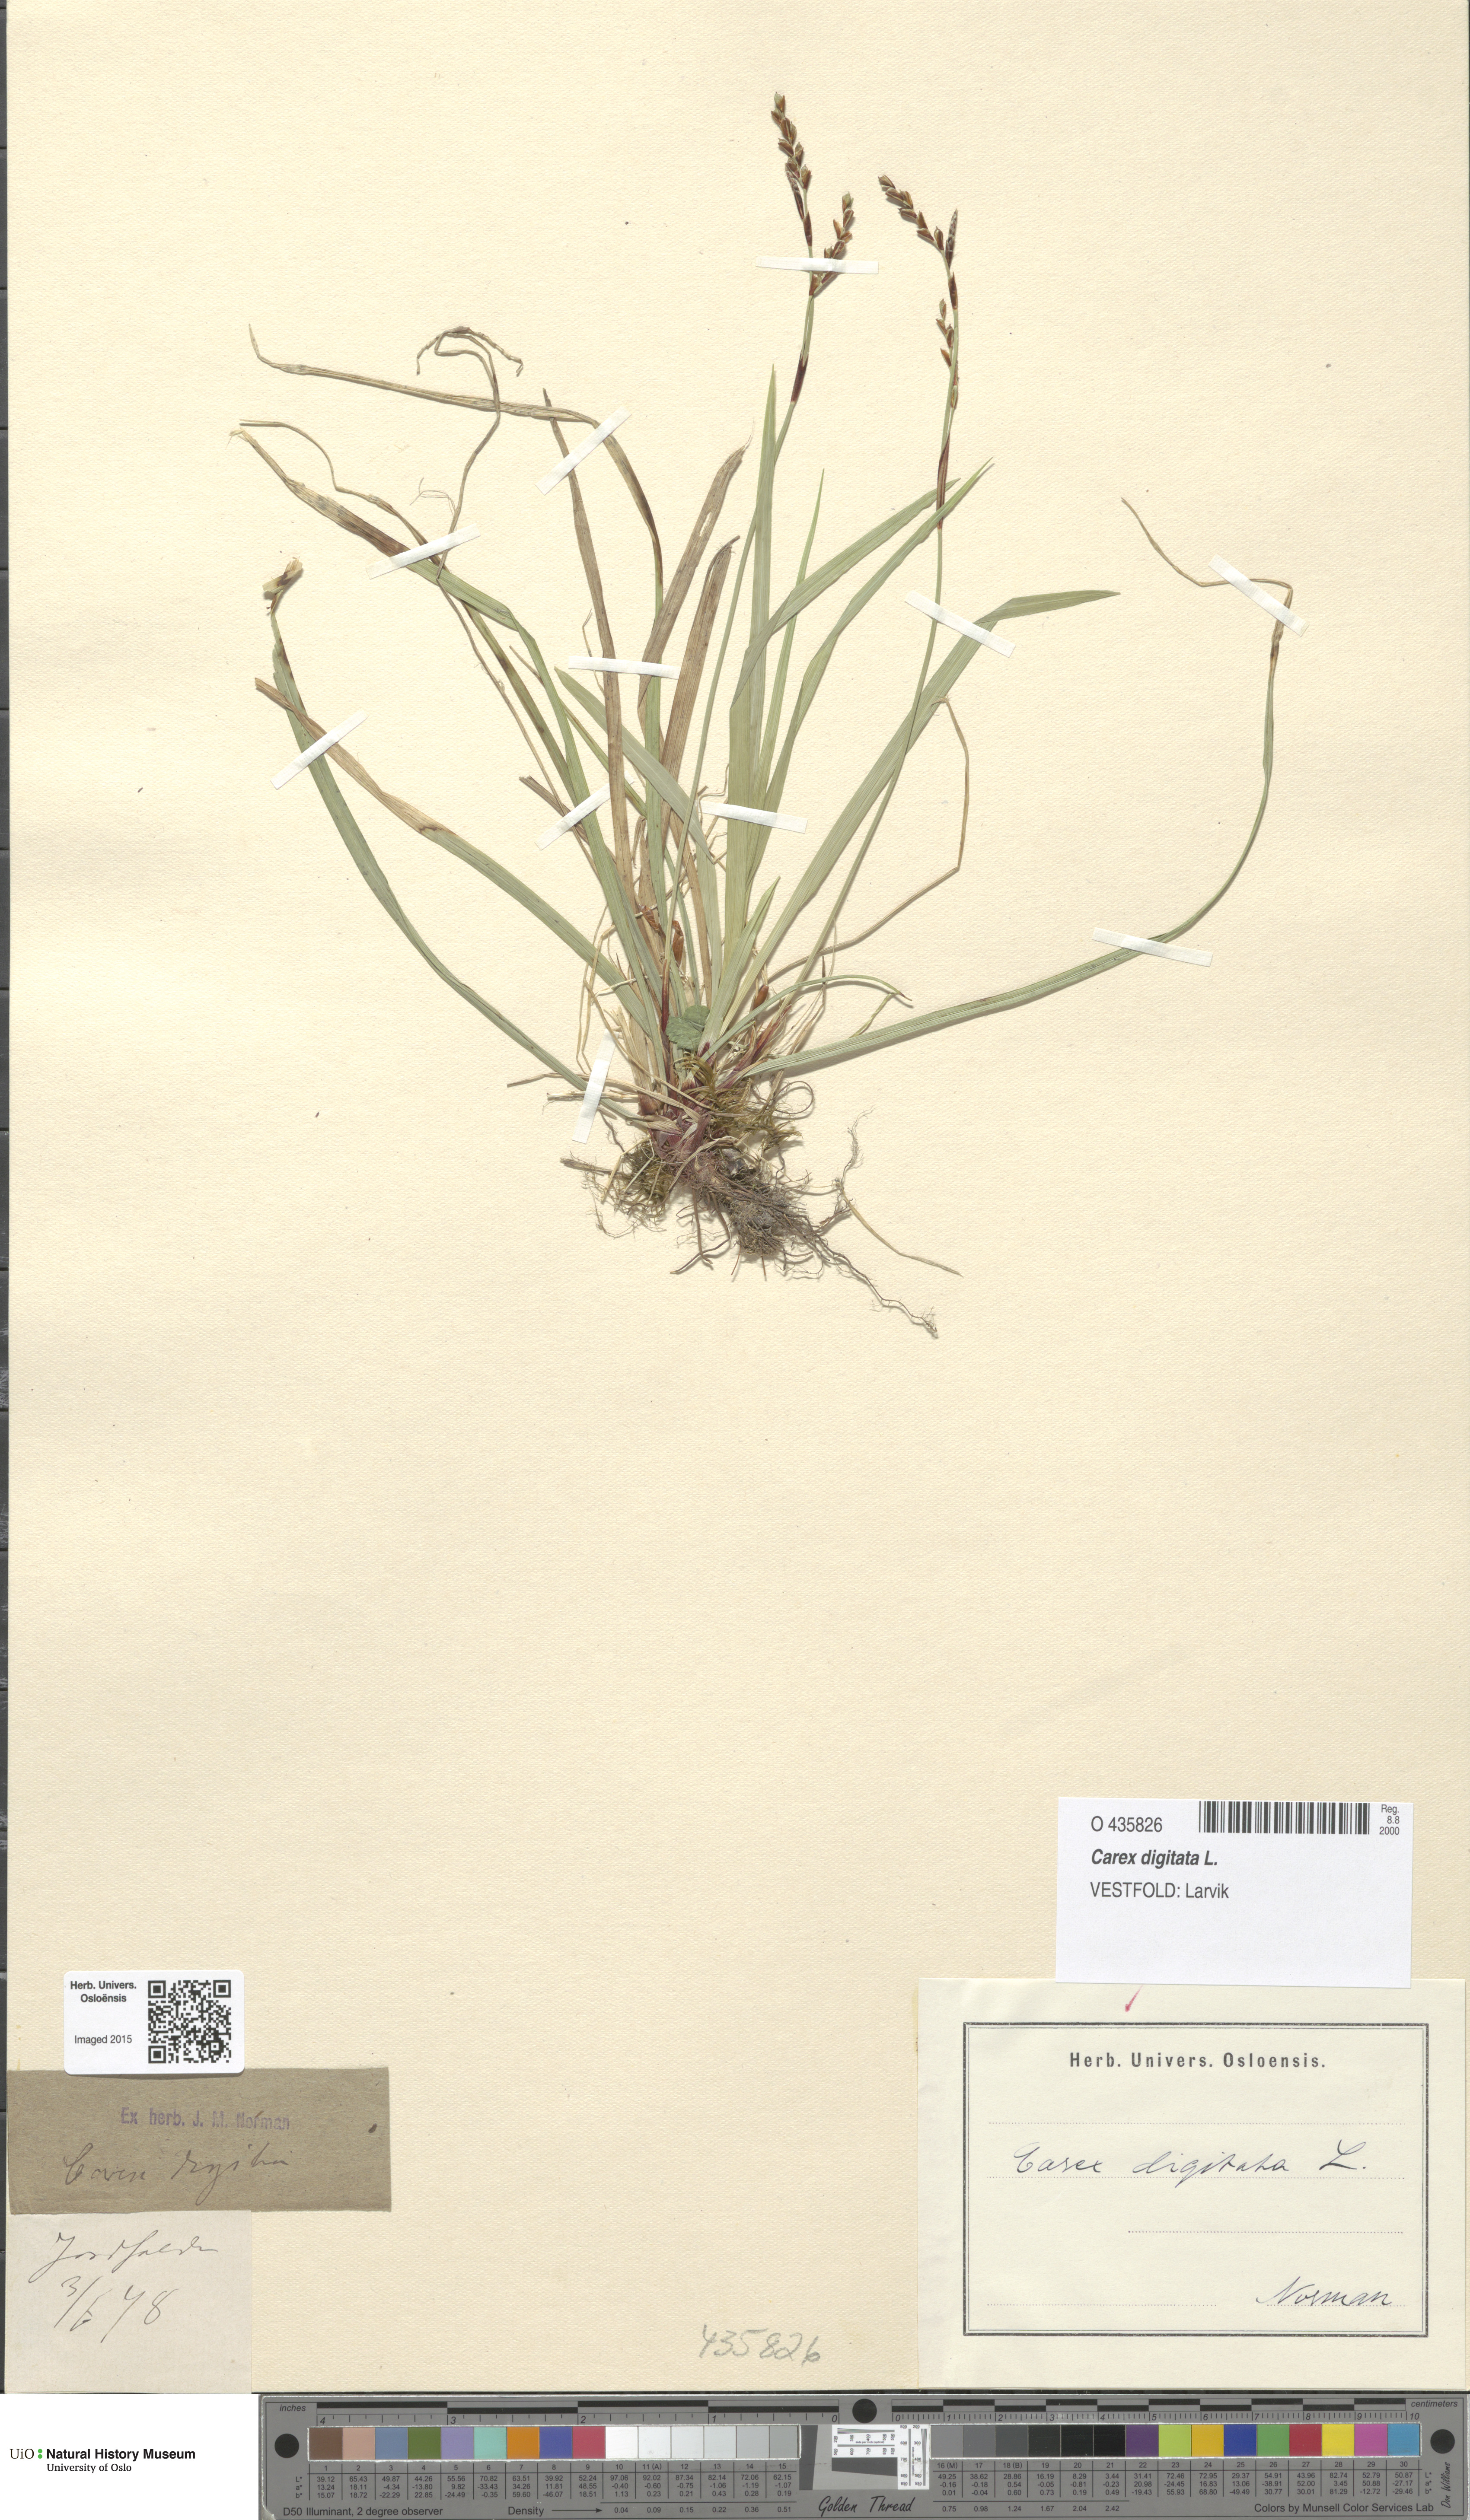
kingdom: Plantae
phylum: Tracheophyta
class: Liliopsida
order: Poales
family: Cyperaceae
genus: Carex
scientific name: Carex digitata
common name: Fingered sedge
